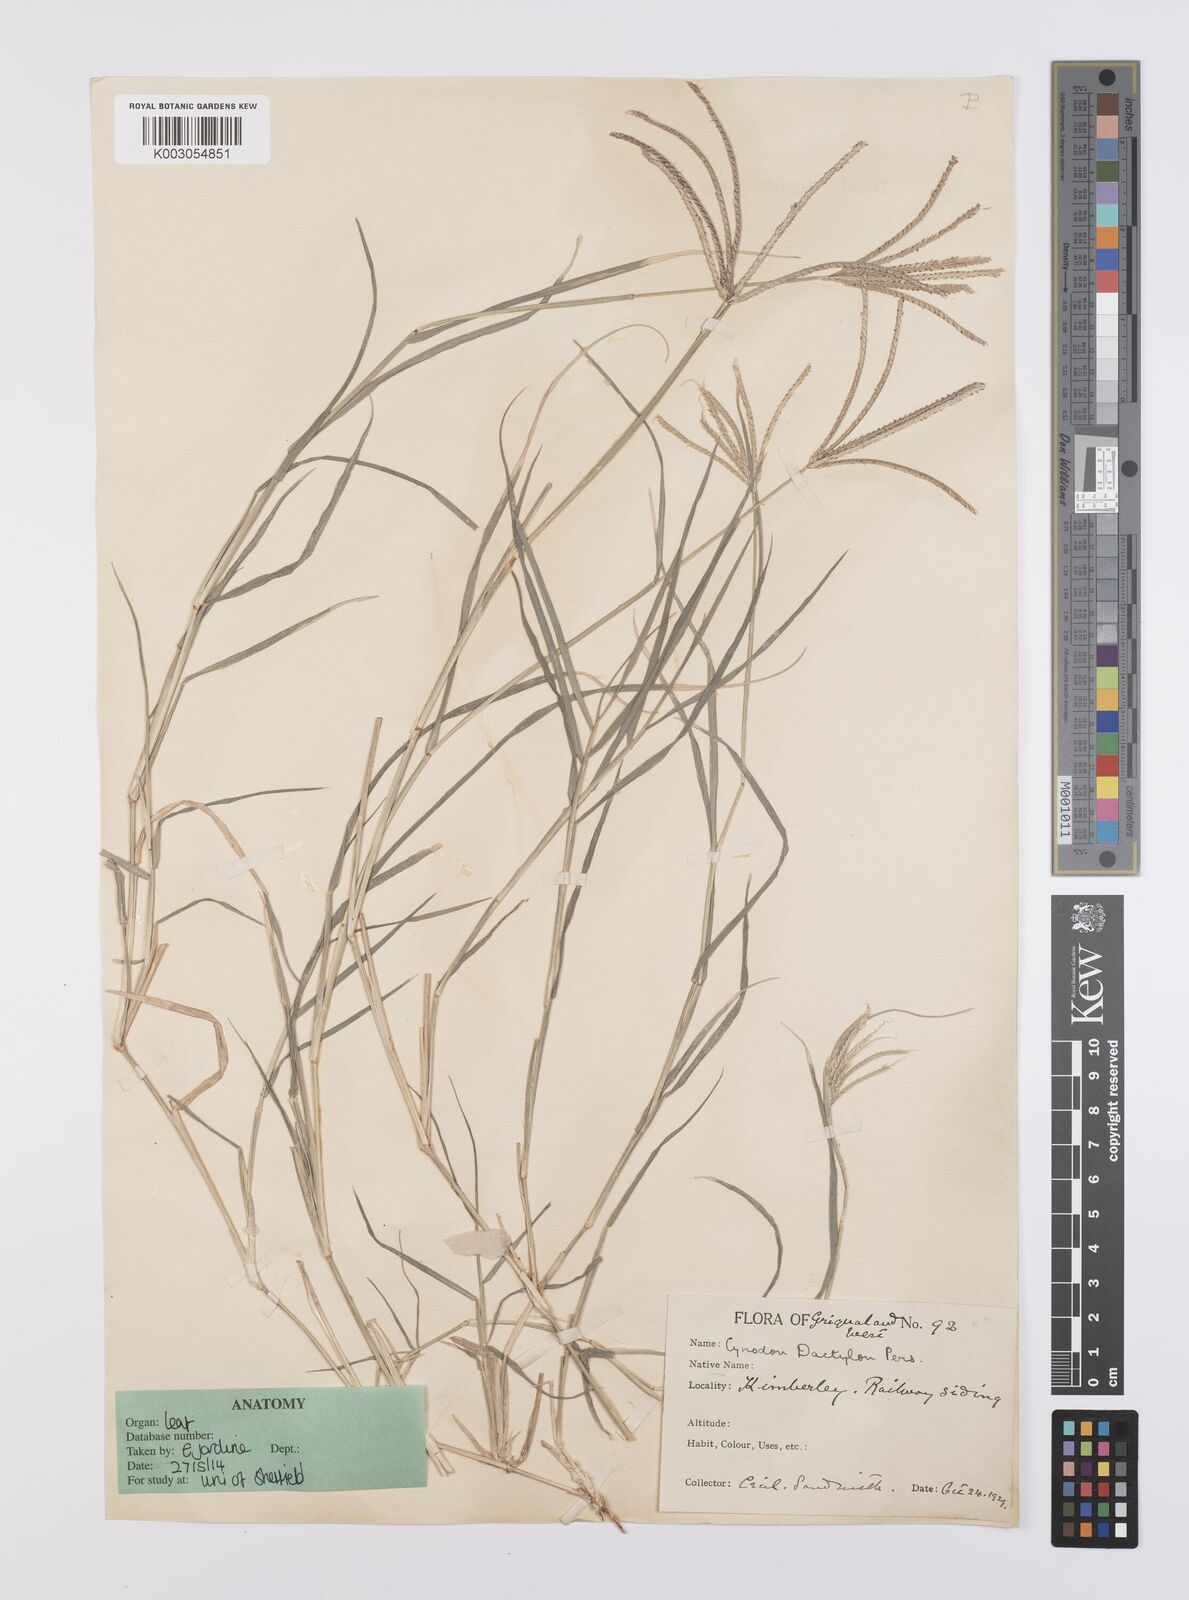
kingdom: Plantae
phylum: Tracheophyta
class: Liliopsida
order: Poales
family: Poaceae
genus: Cynodon
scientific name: Cynodon dactylon
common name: Bermuda grass
